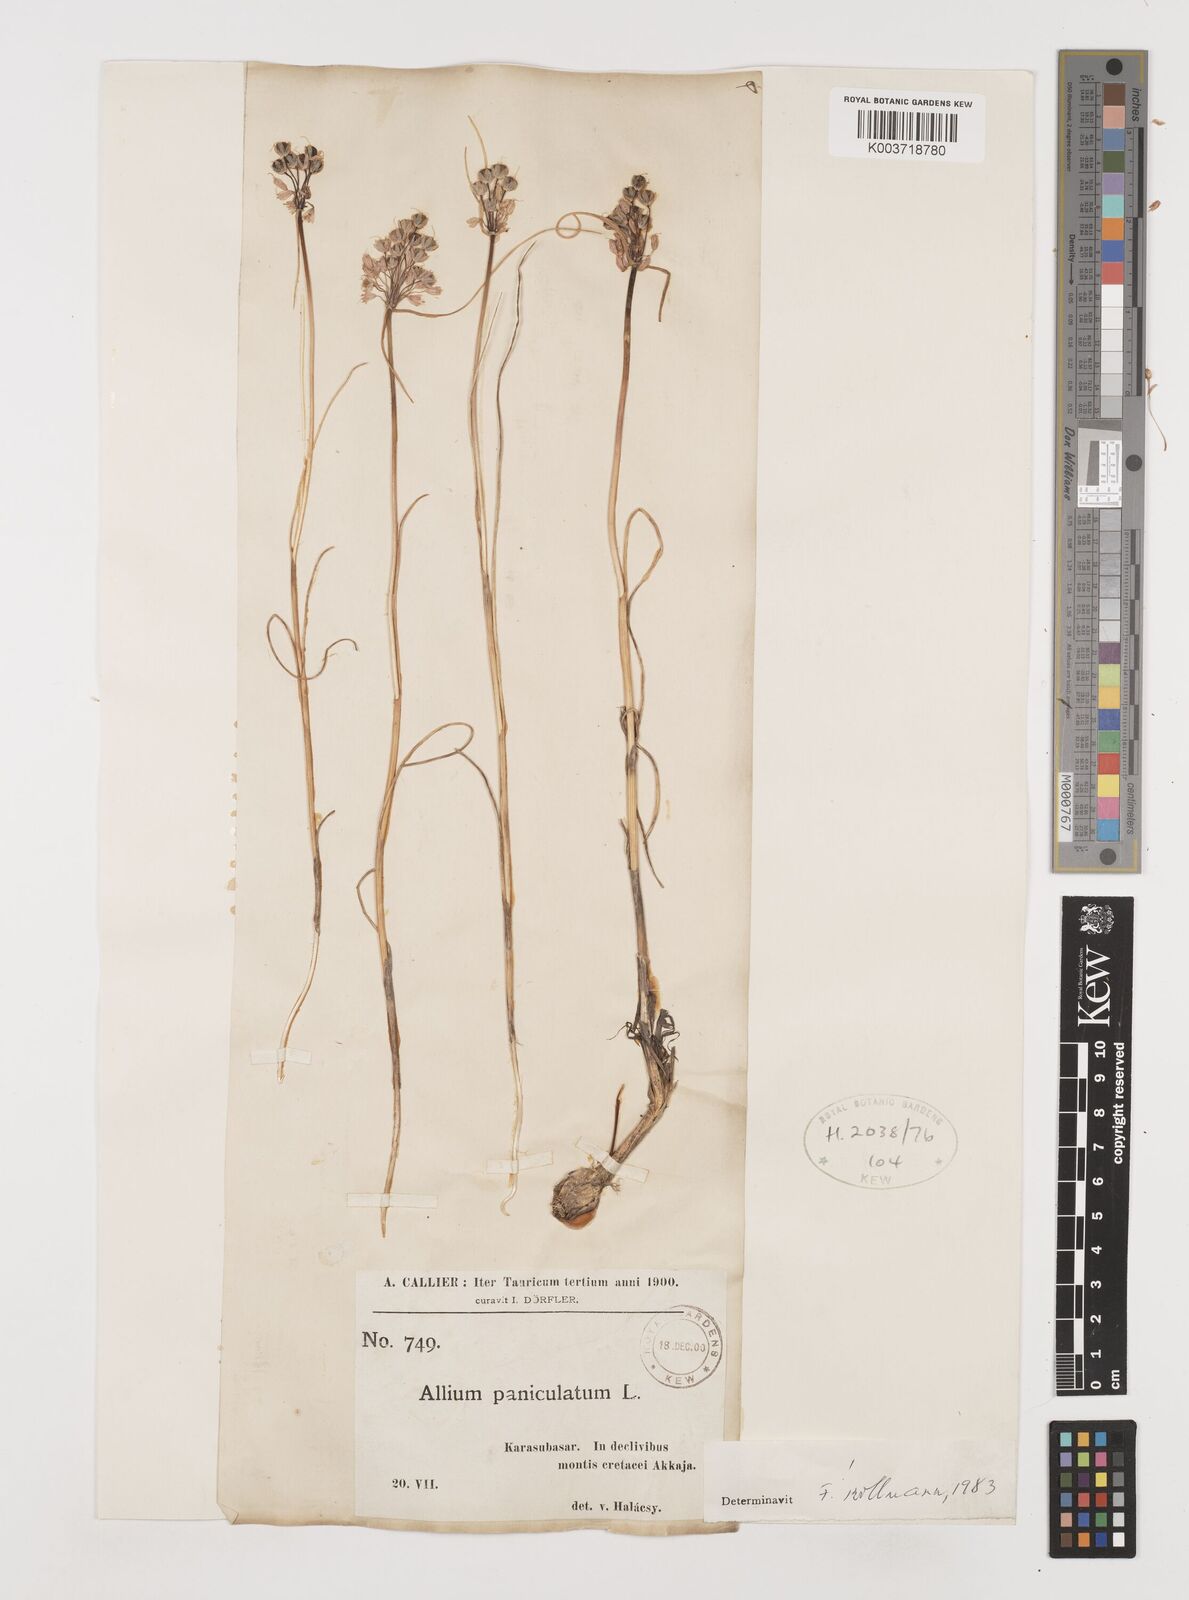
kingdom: Plantae
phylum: Tracheophyta
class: Liliopsida
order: Asparagales
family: Amaryllidaceae
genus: Allium
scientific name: Allium flavum
